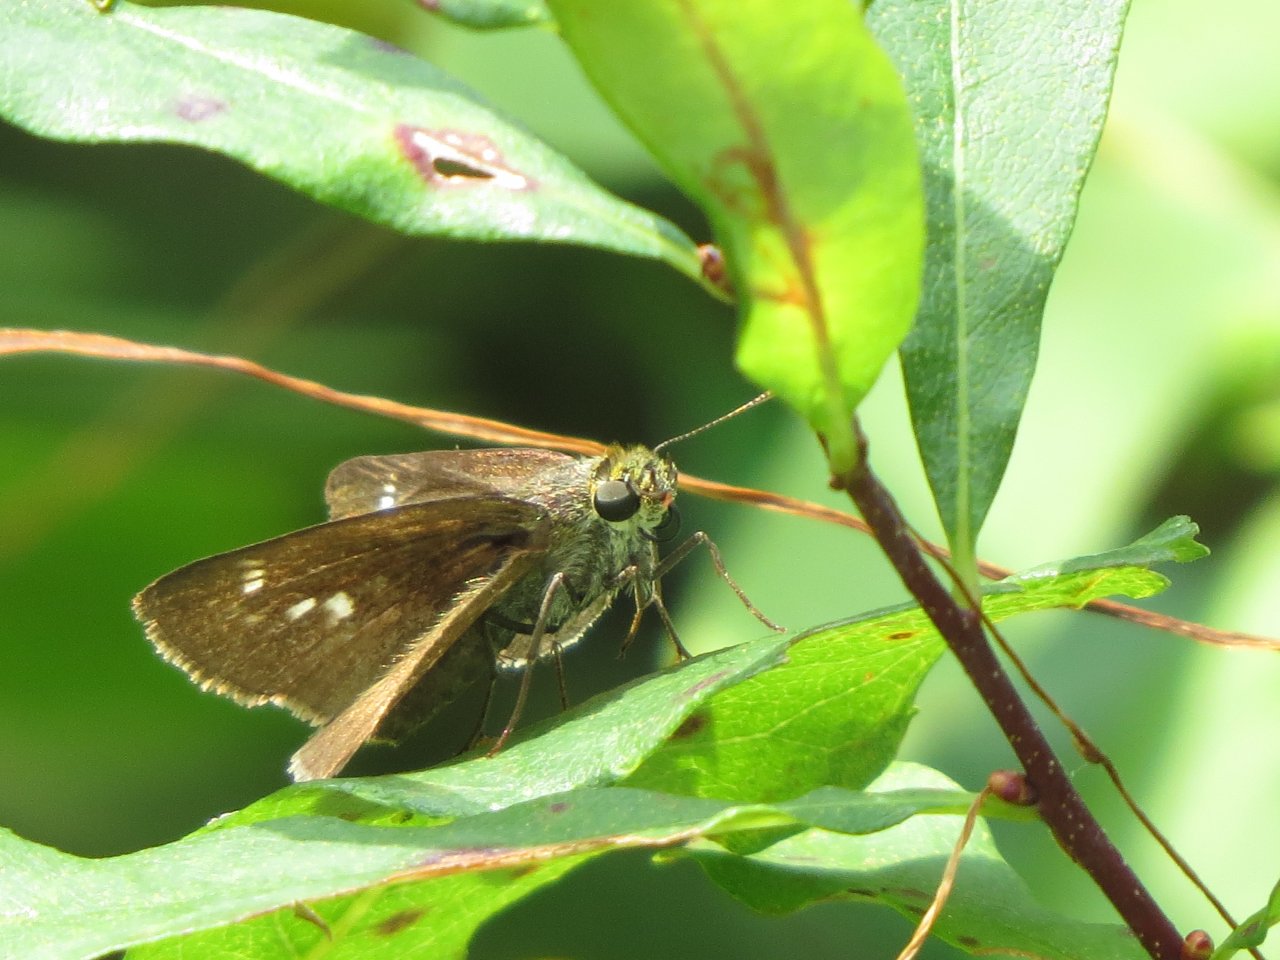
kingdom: Animalia
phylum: Arthropoda
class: Insecta
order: Lepidoptera
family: Hesperiidae
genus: Polites
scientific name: Polites egeremet
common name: Northern Broken-Dash
